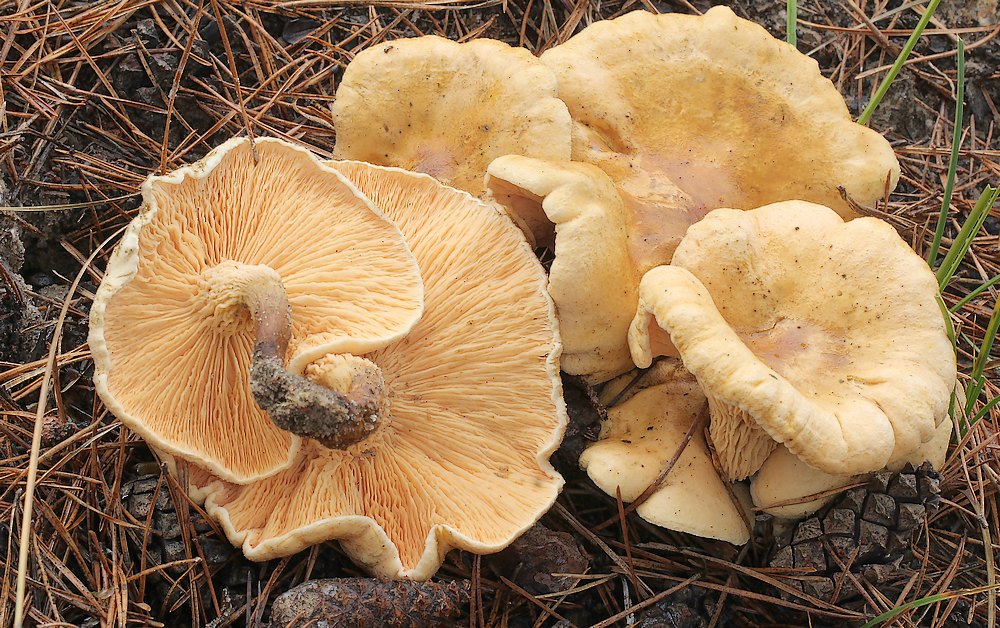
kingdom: Fungi
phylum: Basidiomycota
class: Agaricomycetes
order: Boletales
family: Hygrophoropsidaceae
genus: Hygrophoropsis
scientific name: Hygrophoropsis aurantiaca
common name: almindelig orangekantarel
